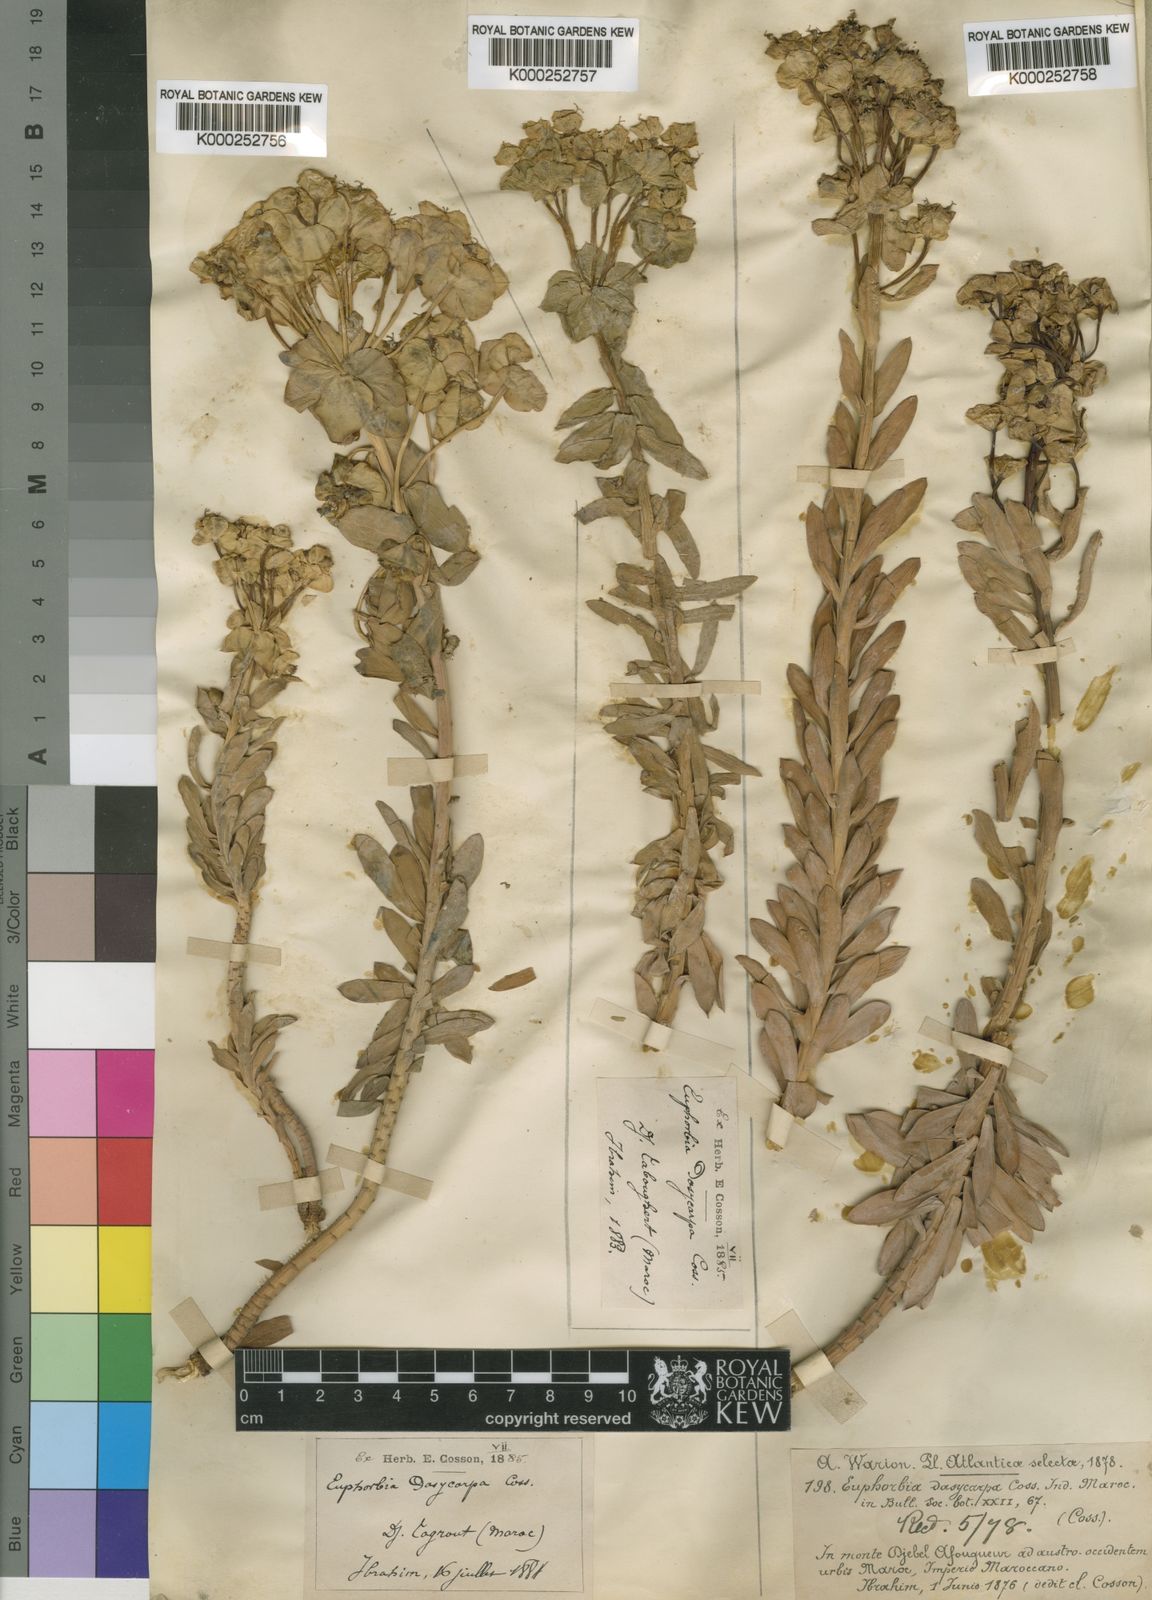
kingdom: Plantae
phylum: Tracheophyta
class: Magnoliopsida
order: Malpighiales
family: Euphorbiaceae
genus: Euphorbia
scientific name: Euphorbia nicaeensis
